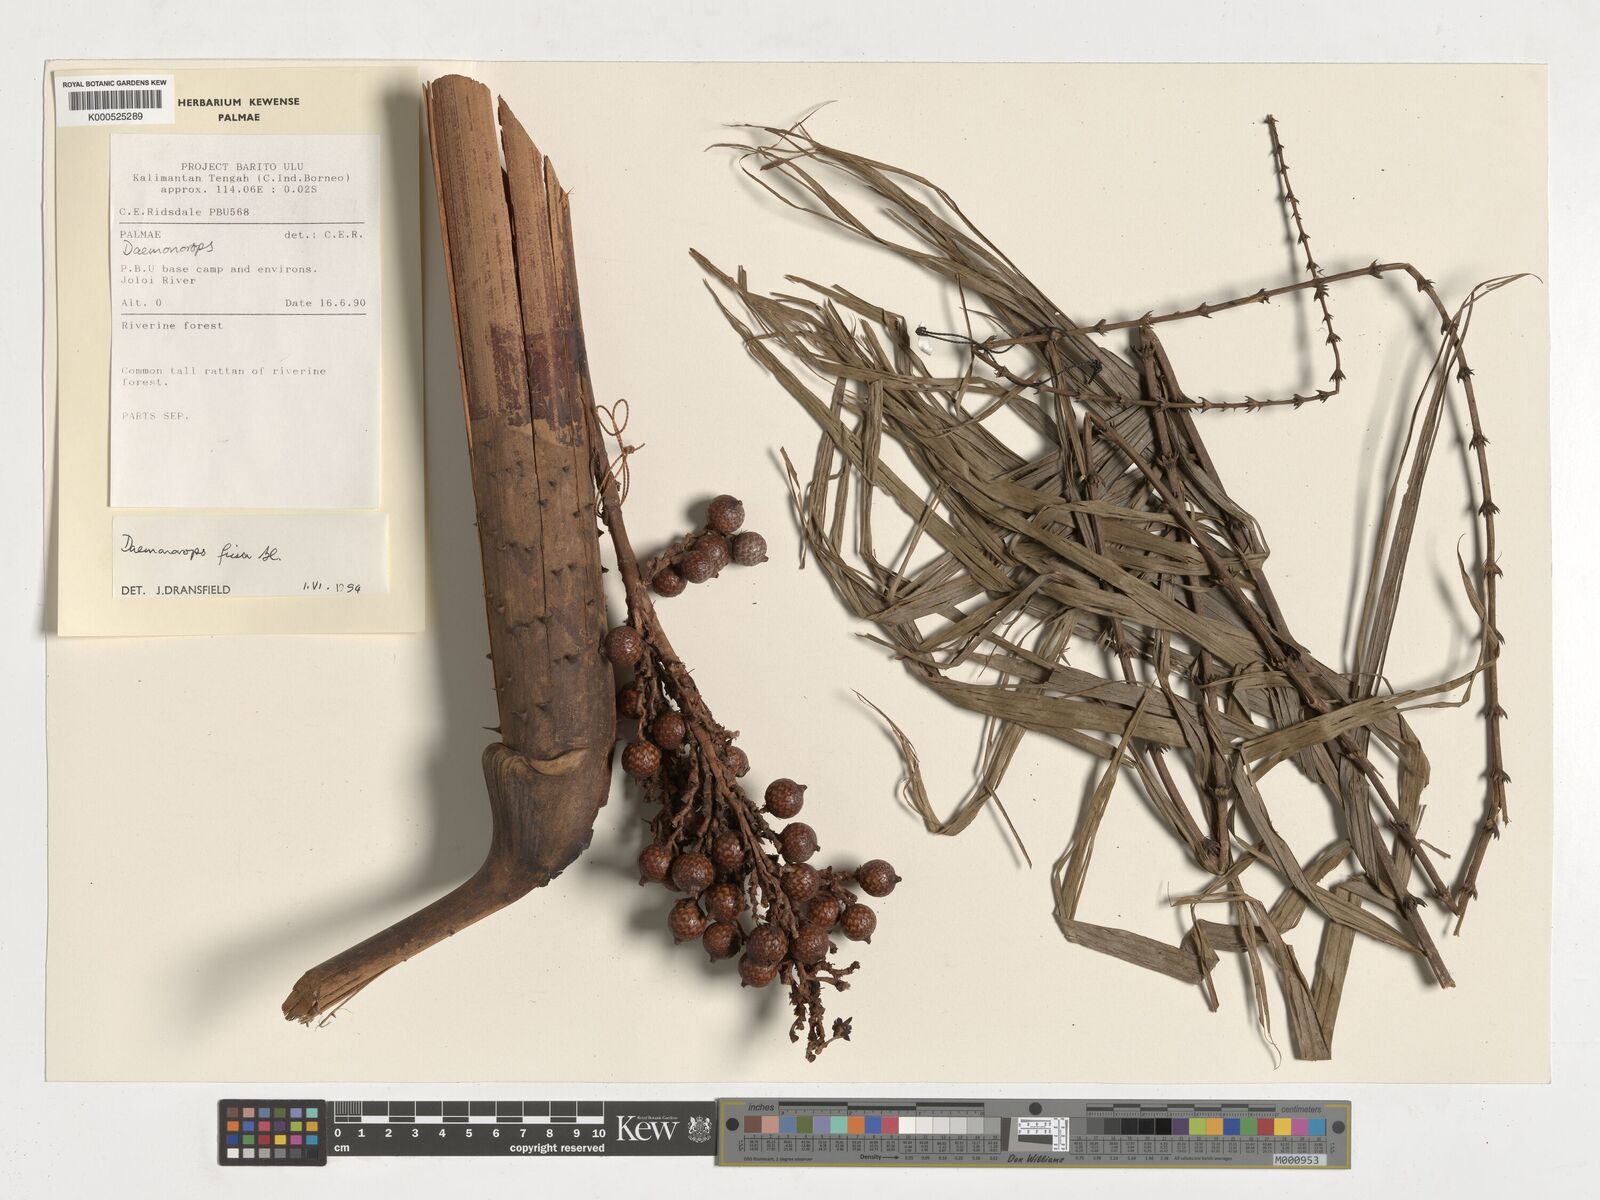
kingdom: Plantae
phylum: Tracheophyta
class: Liliopsida
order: Arecales
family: Arecaceae
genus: Calamus
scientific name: Calamus melanochaetes
